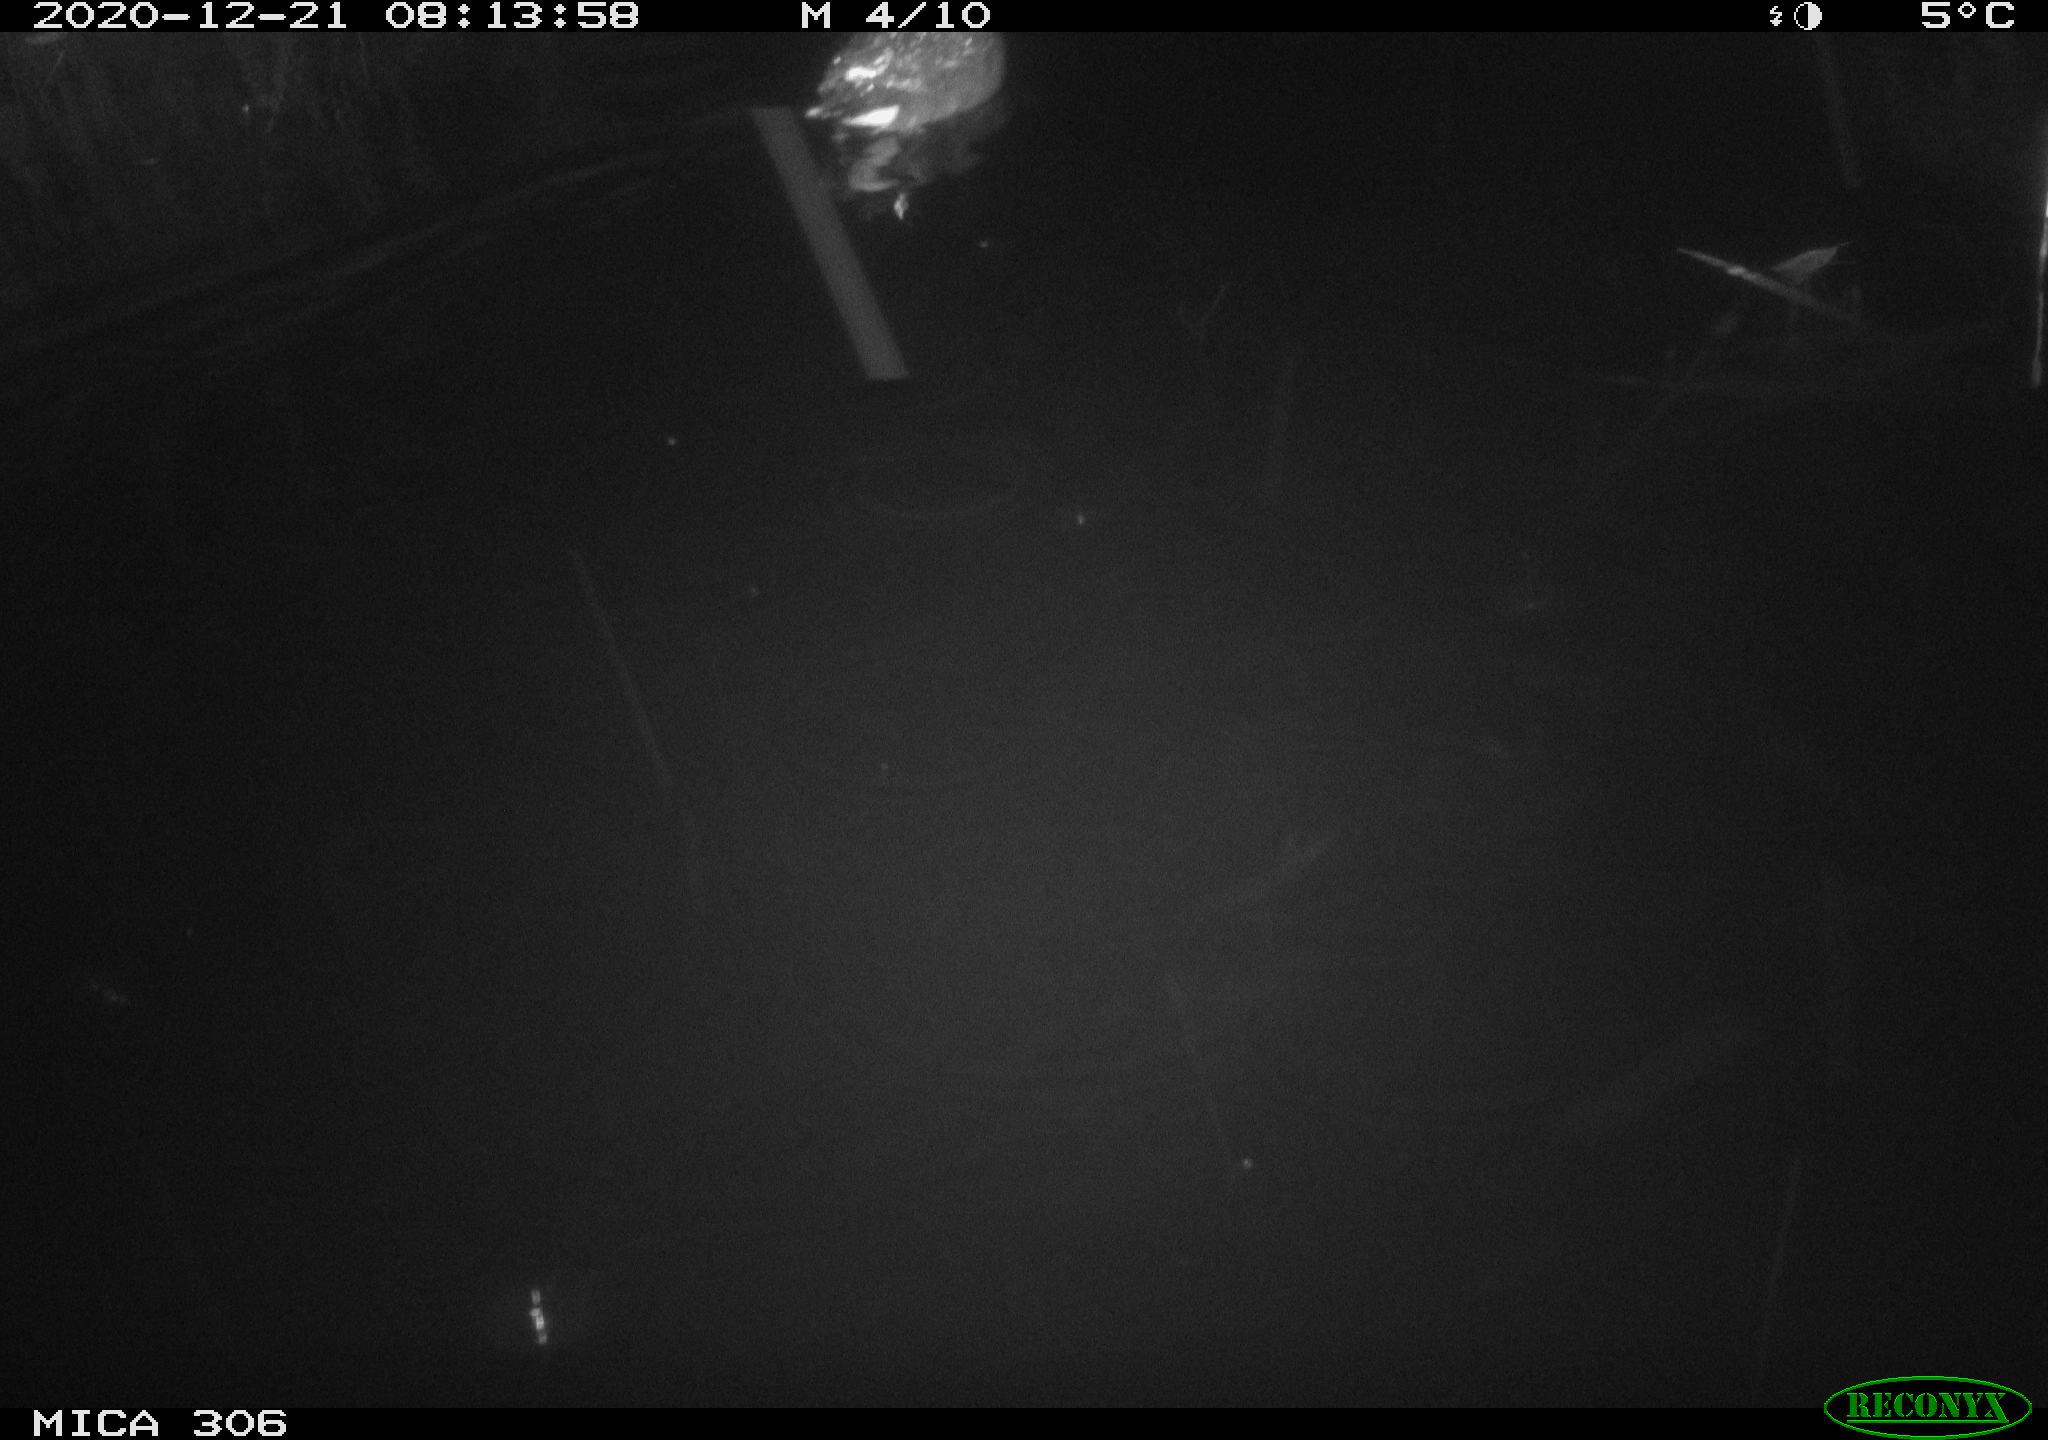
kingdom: Animalia
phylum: Chordata
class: Aves
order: Gruiformes
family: Rallidae
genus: Gallinula
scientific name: Gallinula chloropus
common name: Common moorhen
